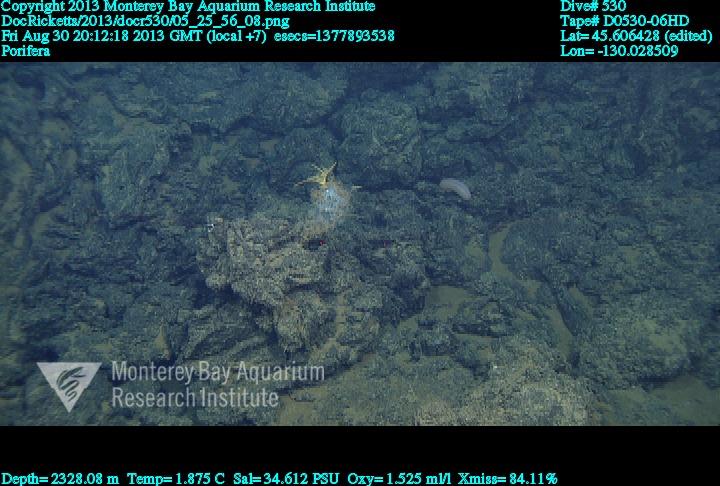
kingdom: Animalia
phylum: Porifera
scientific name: Porifera
